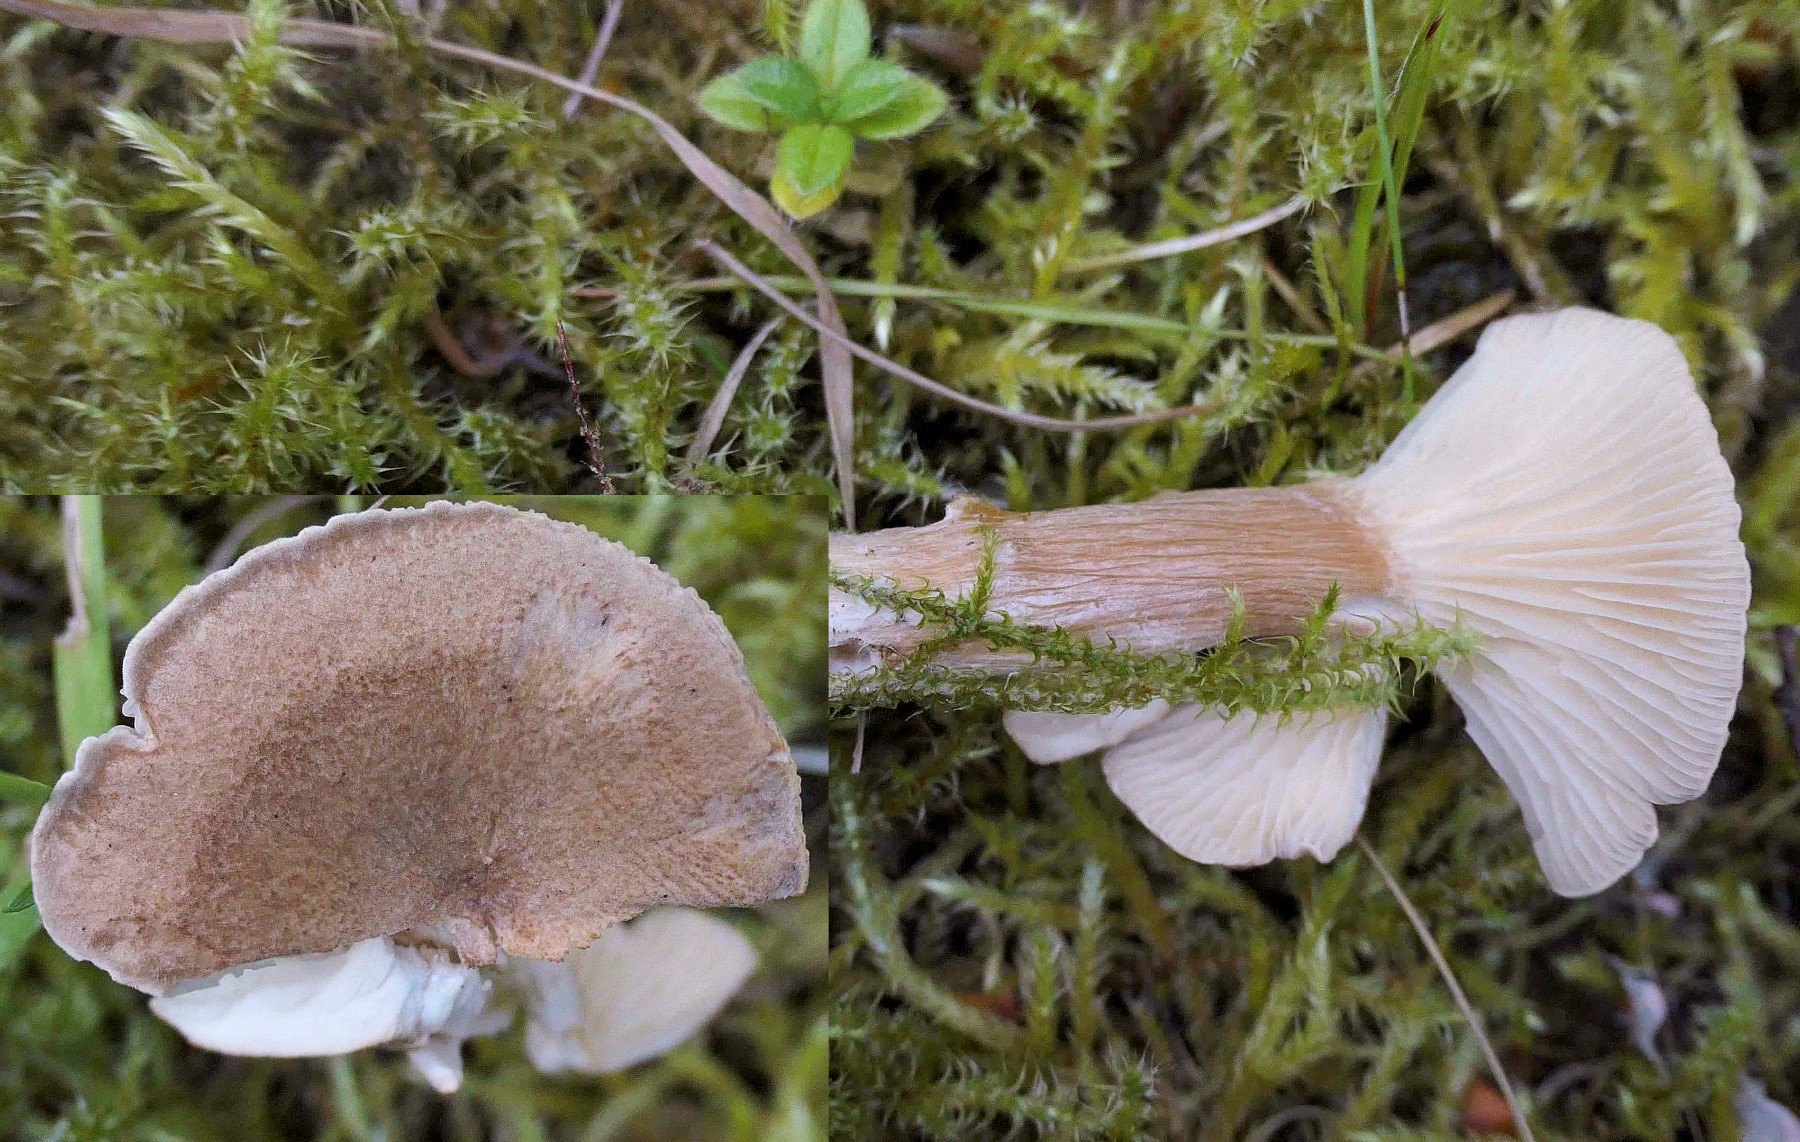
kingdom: Fungi
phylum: Basidiomycota
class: Agaricomycetes
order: Agaricales
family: Tricholomataceae
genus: Infundibulicybe
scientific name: Infundibulicybe squamulosa
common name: småskællet tragthat
